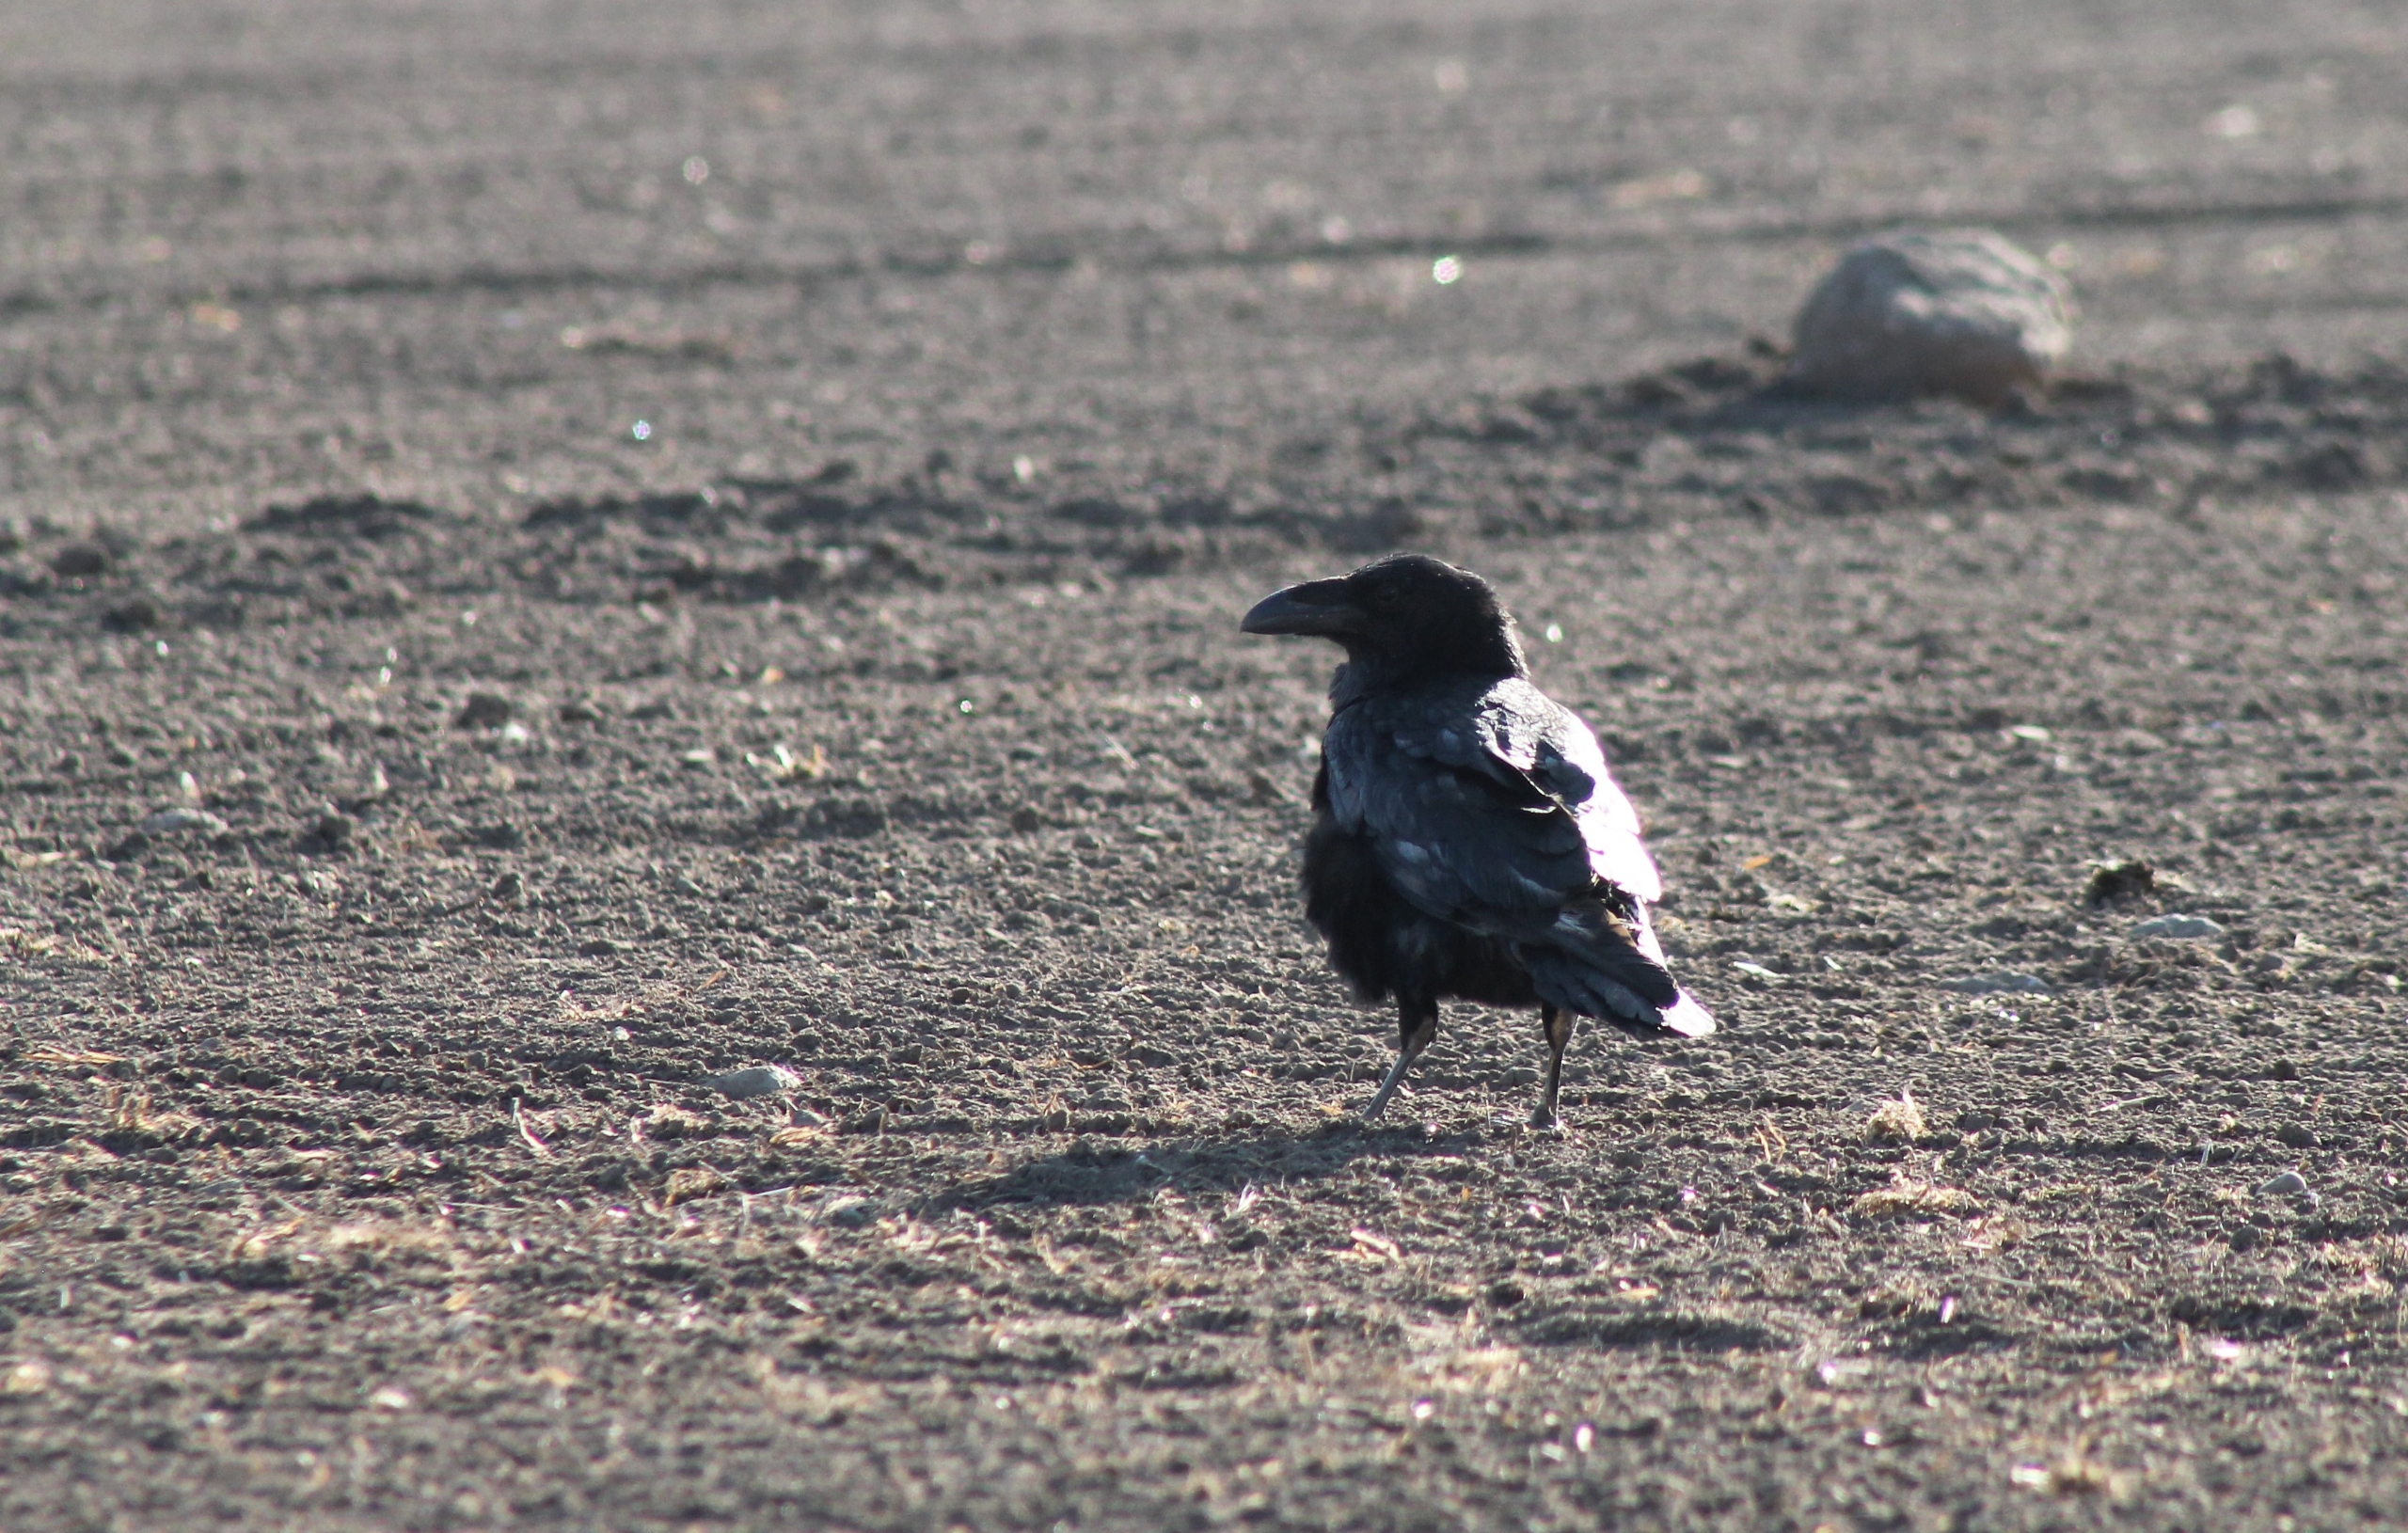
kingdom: Animalia
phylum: Chordata
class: Aves
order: Passeriformes
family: Corvidae
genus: Corvus
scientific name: Corvus corax
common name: Ravn
